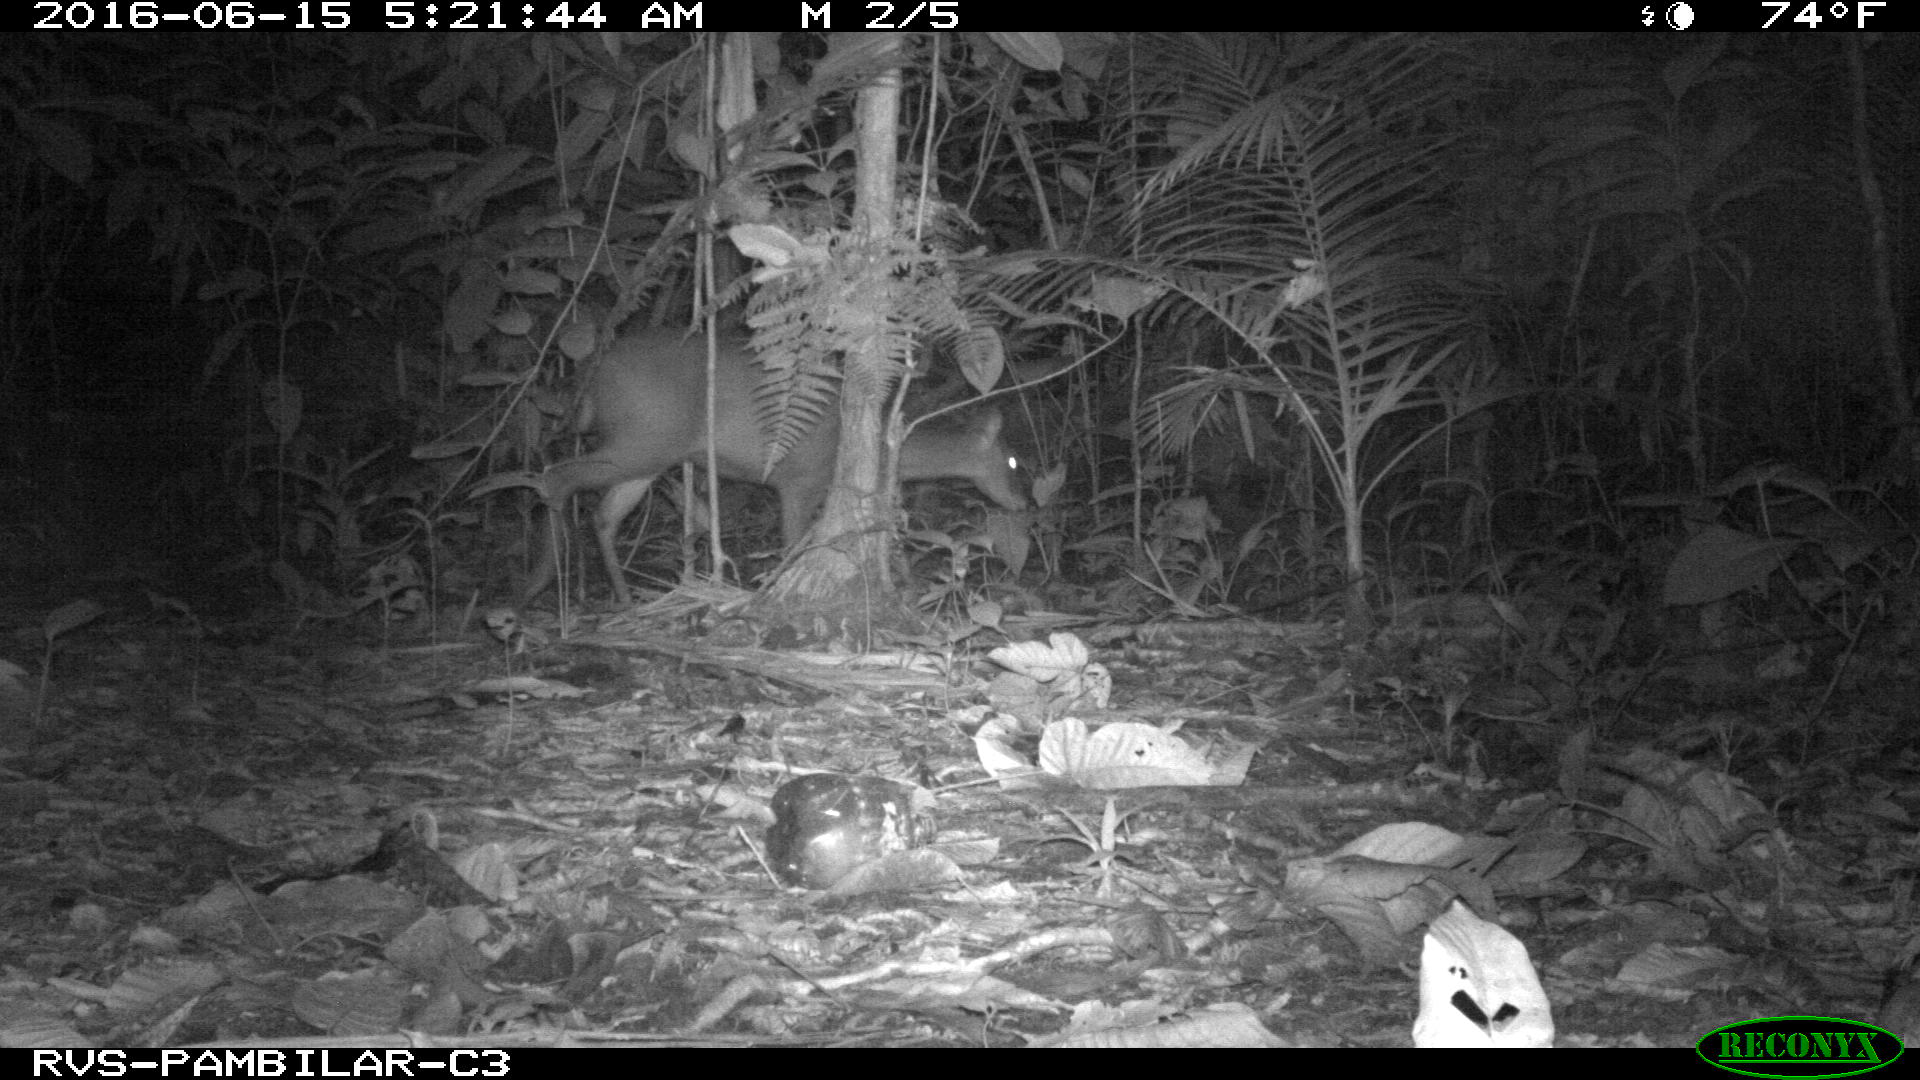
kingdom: Animalia
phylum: Chordata
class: Mammalia
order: Artiodactyla
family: Cervidae
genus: Mazama
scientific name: Mazama americana
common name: Red brocket
